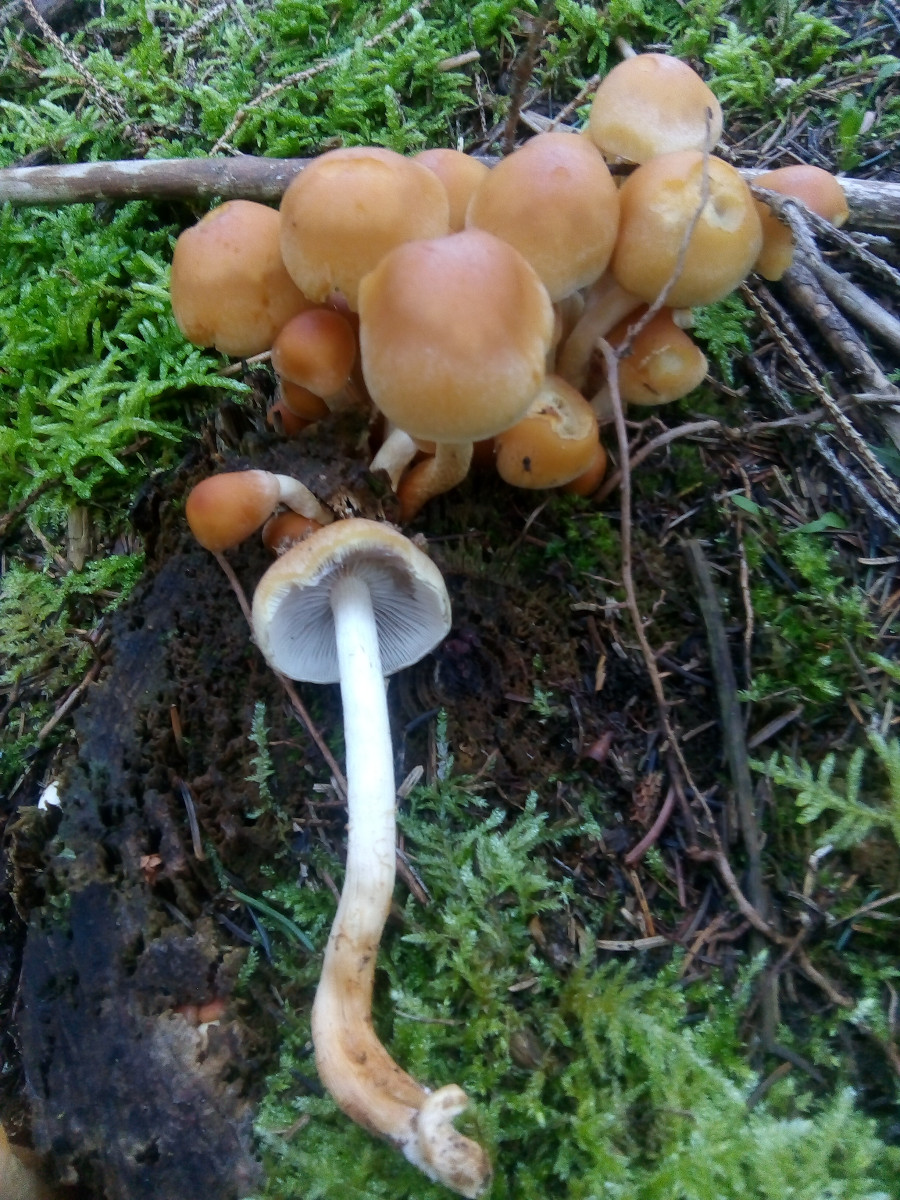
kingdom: Fungi
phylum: Basidiomycota
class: Agaricomycetes
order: Agaricales
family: Strophariaceae
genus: Hypholoma
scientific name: Hypholoma capnoides
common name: gran-svovlhat
